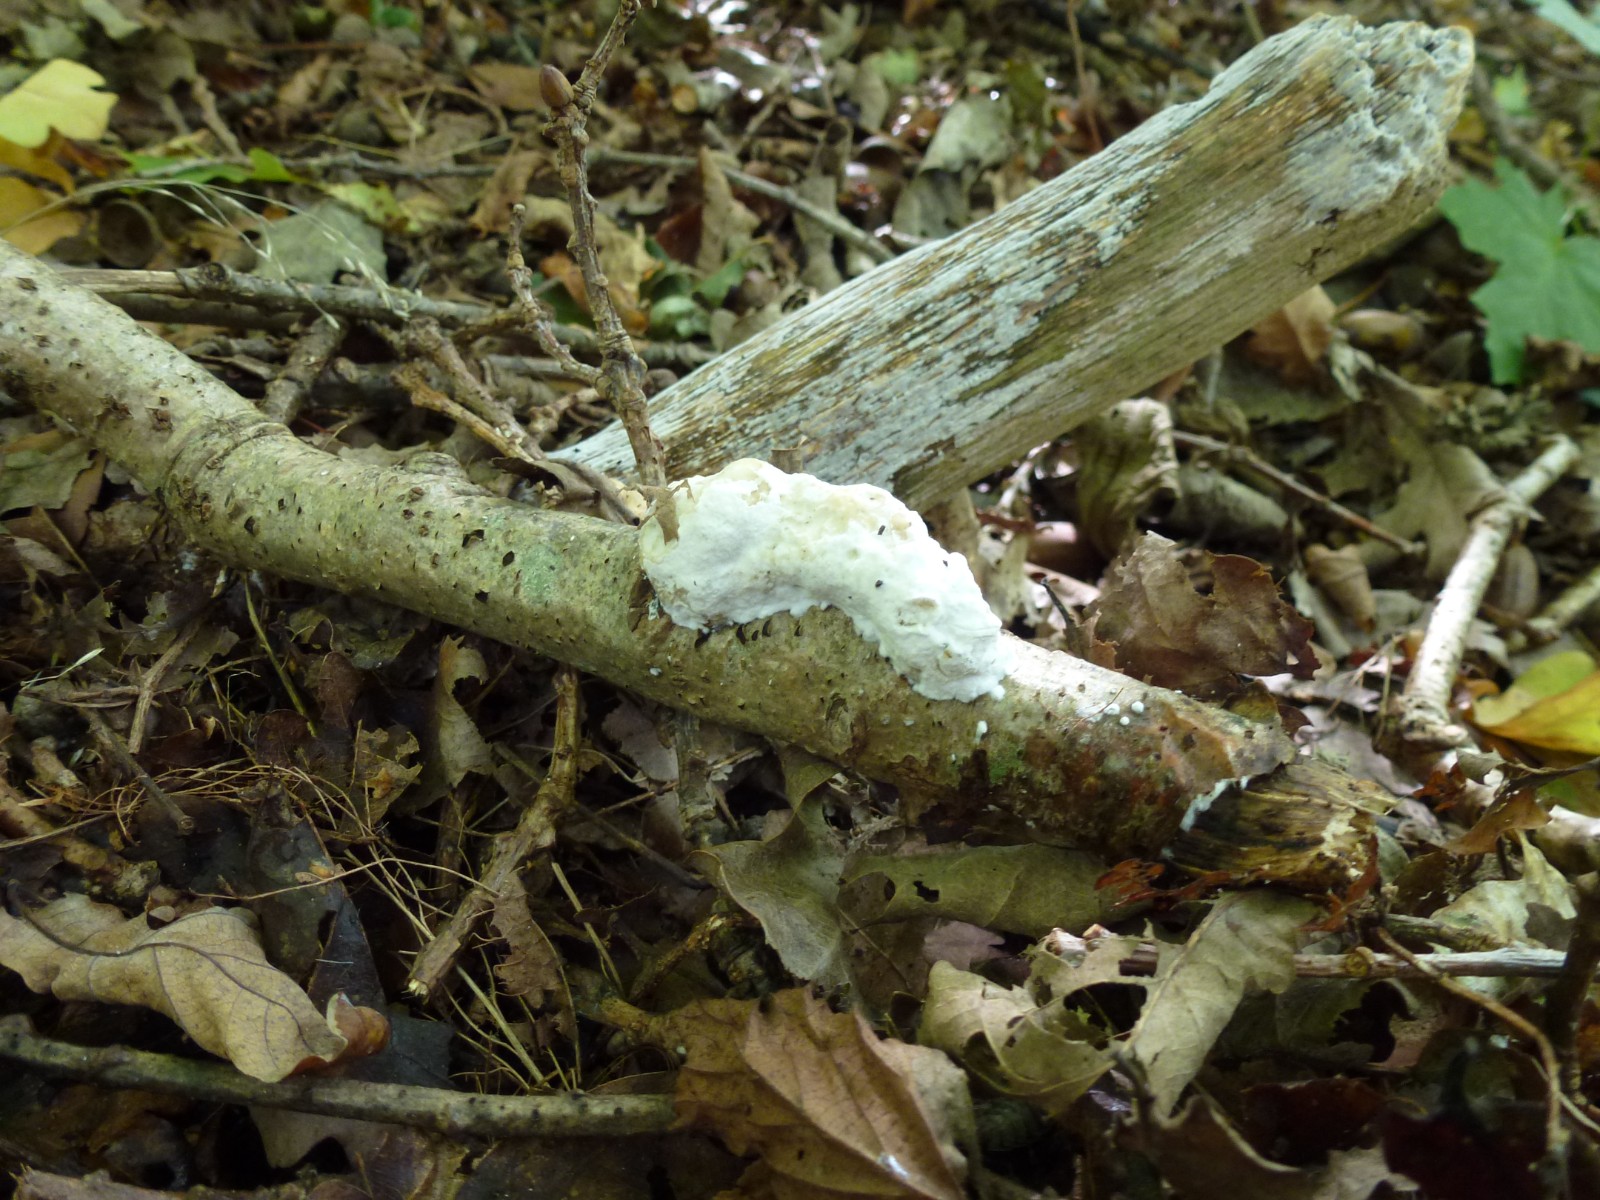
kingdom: Fungi
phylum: Basidiomycota
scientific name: Basidiomycota
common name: basidiesvampe
